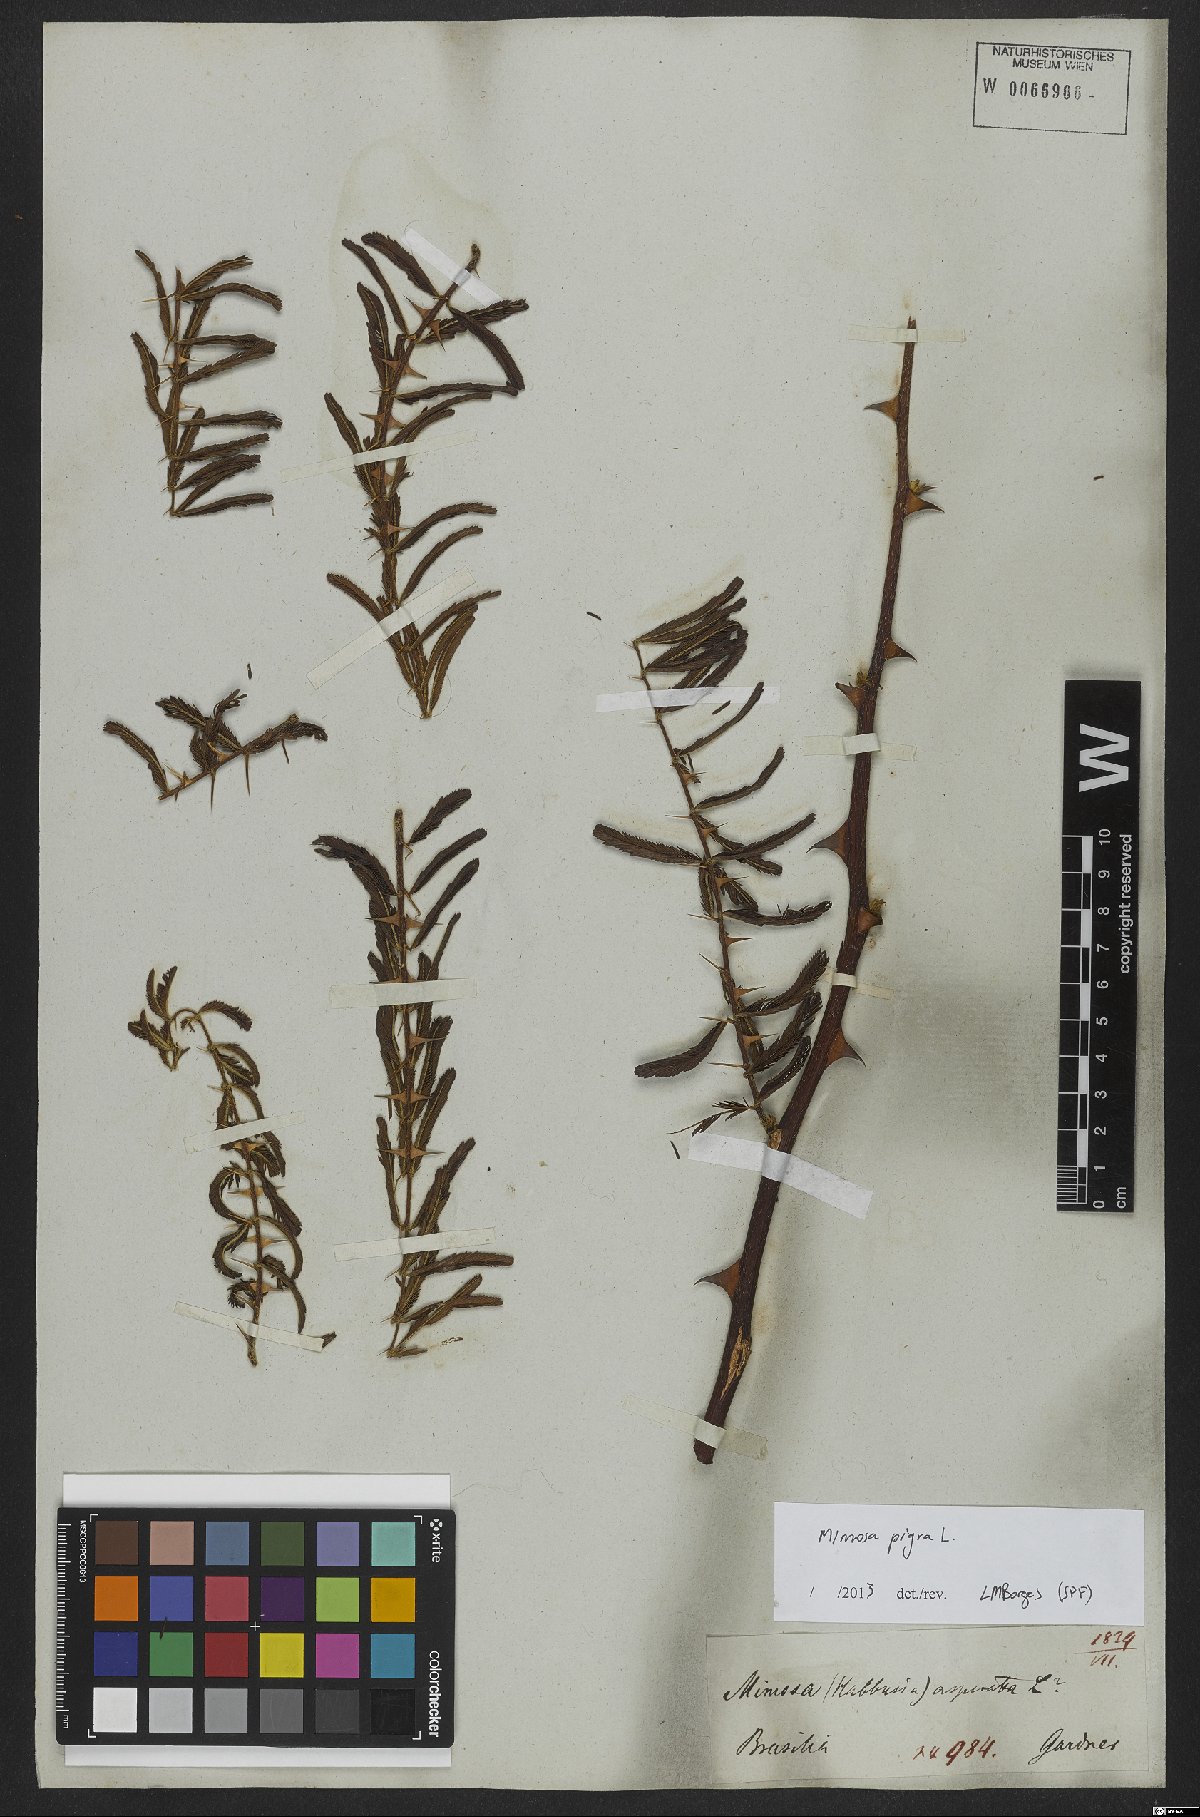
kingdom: Plantae
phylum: Tracheophyta
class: Magnoliopsida
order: Fabales
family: Fabaceae
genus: Mimosa
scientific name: Mimosa pigra
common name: Black mimosa
